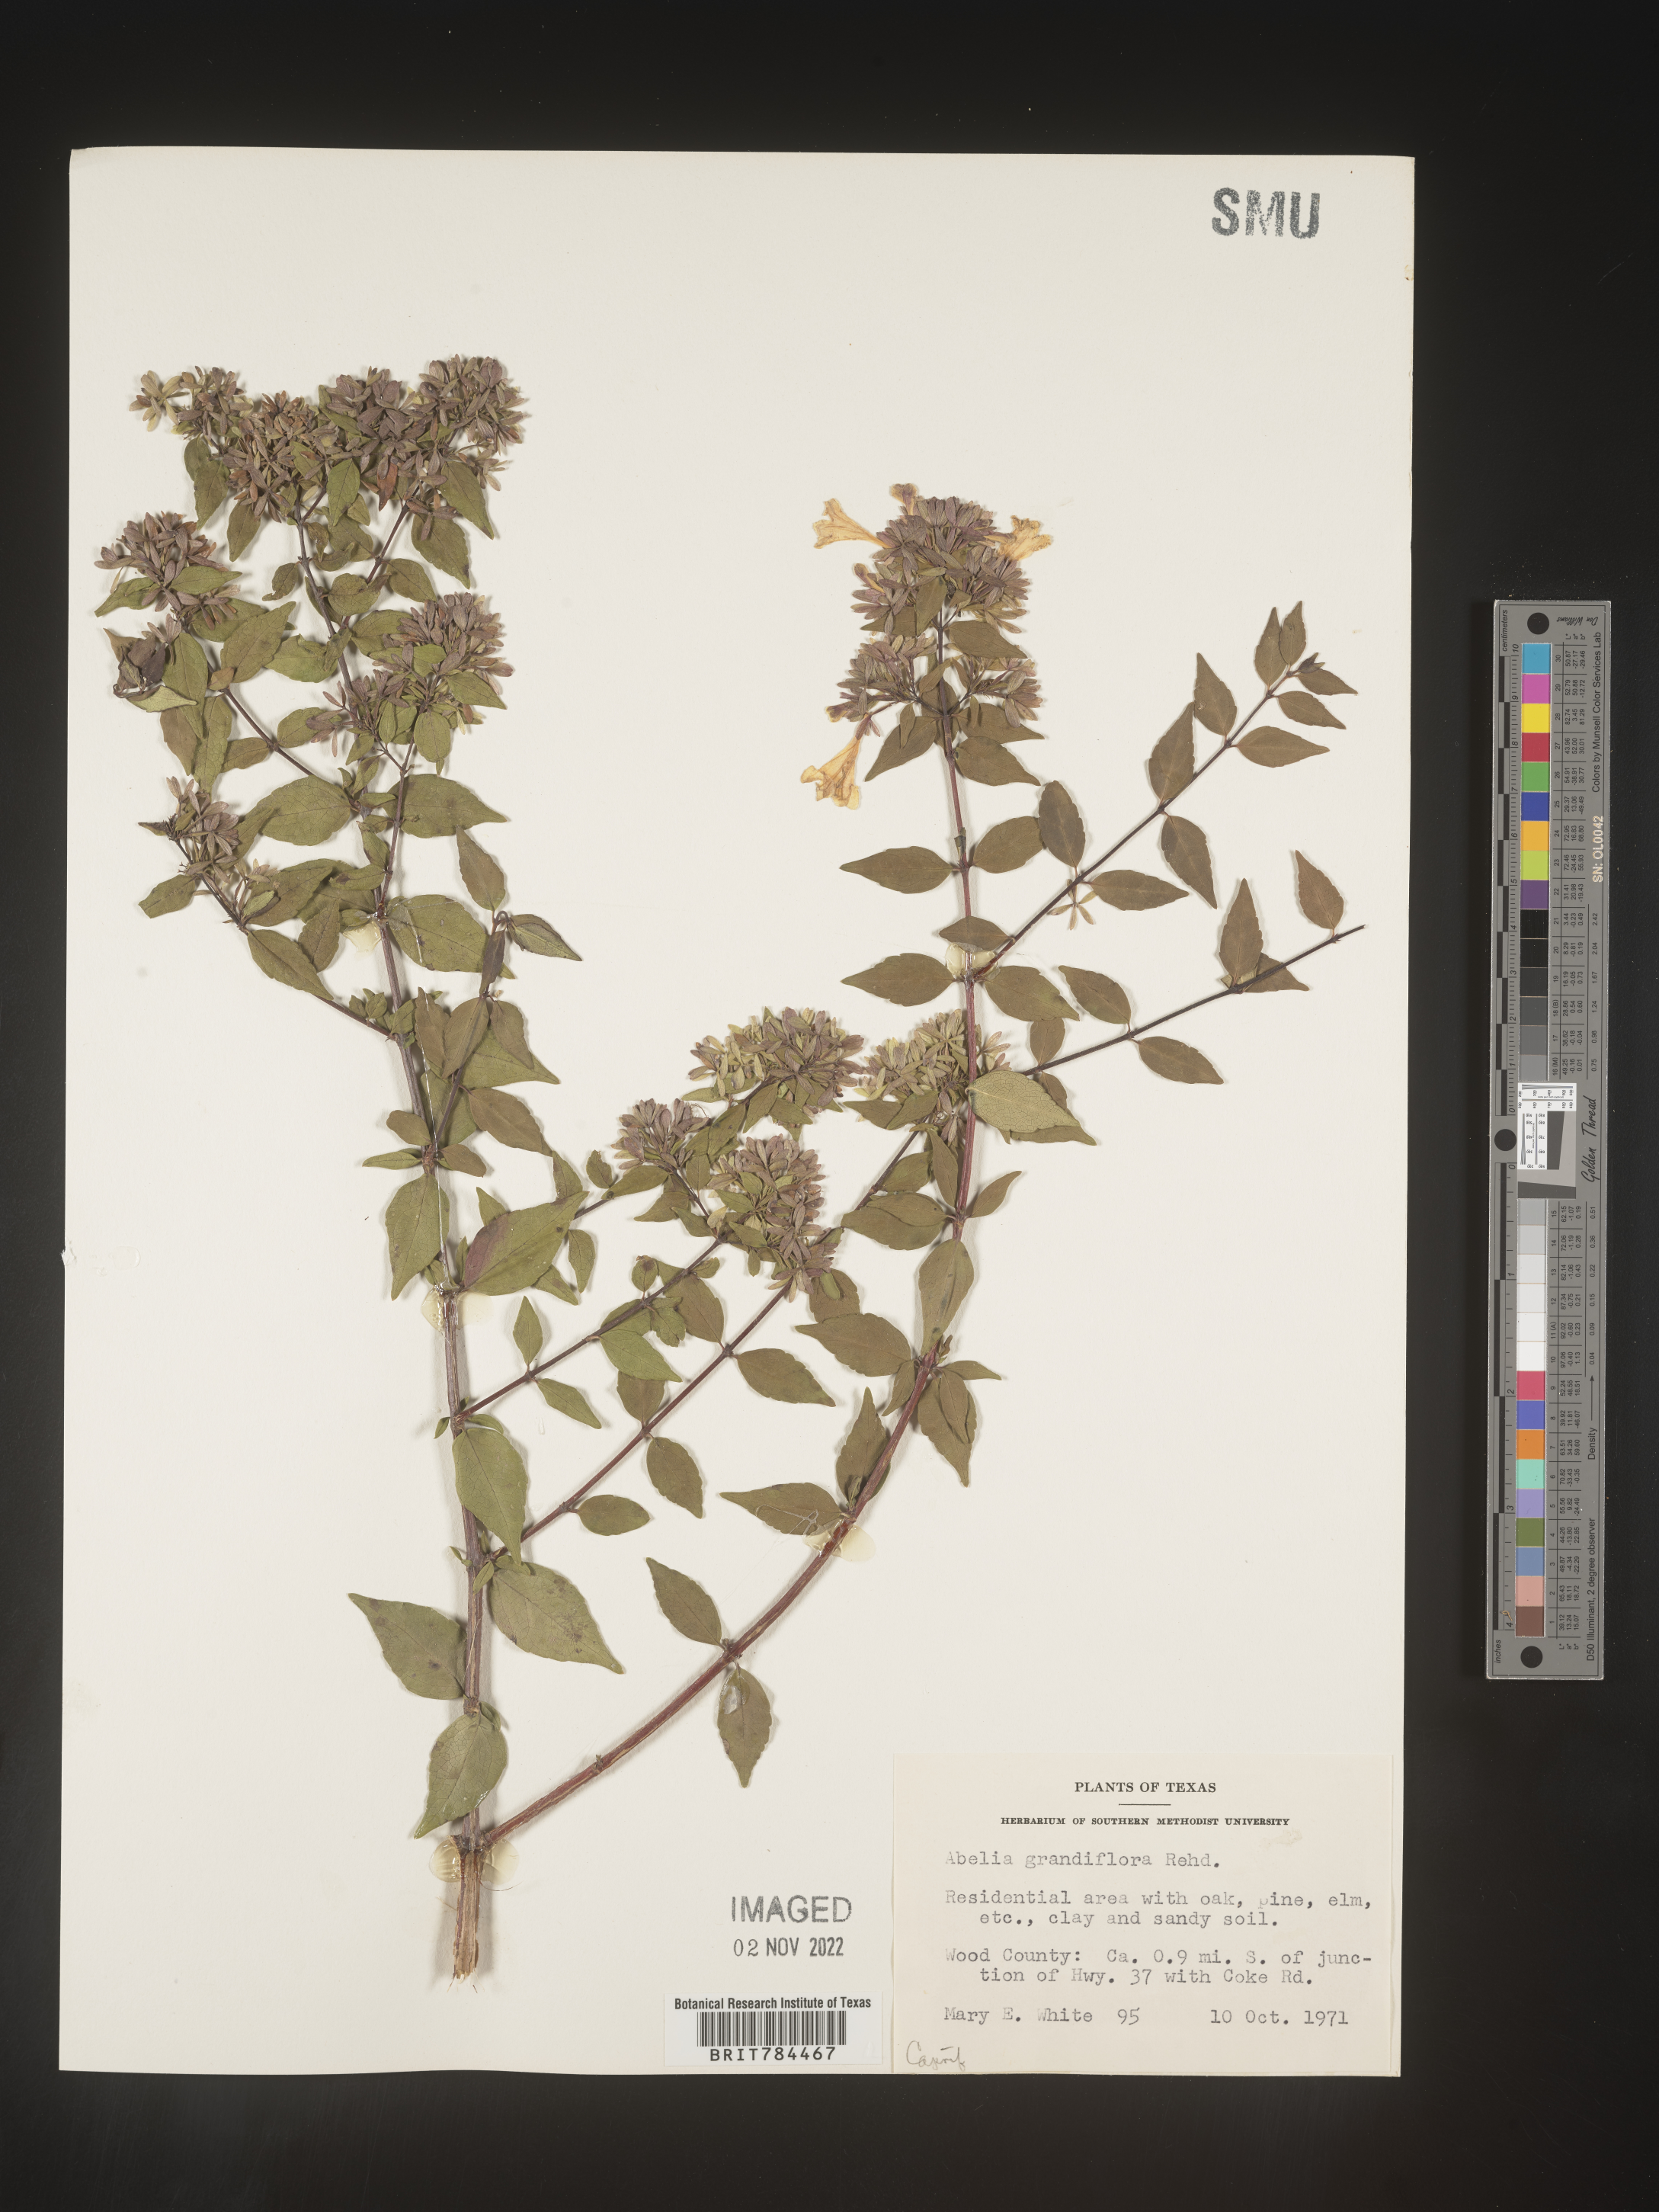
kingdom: Plantae
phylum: Tracheophyta
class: Magnoliopsida
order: Dipsacales
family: Caprifoliaceae
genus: Abelia
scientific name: Abelia
